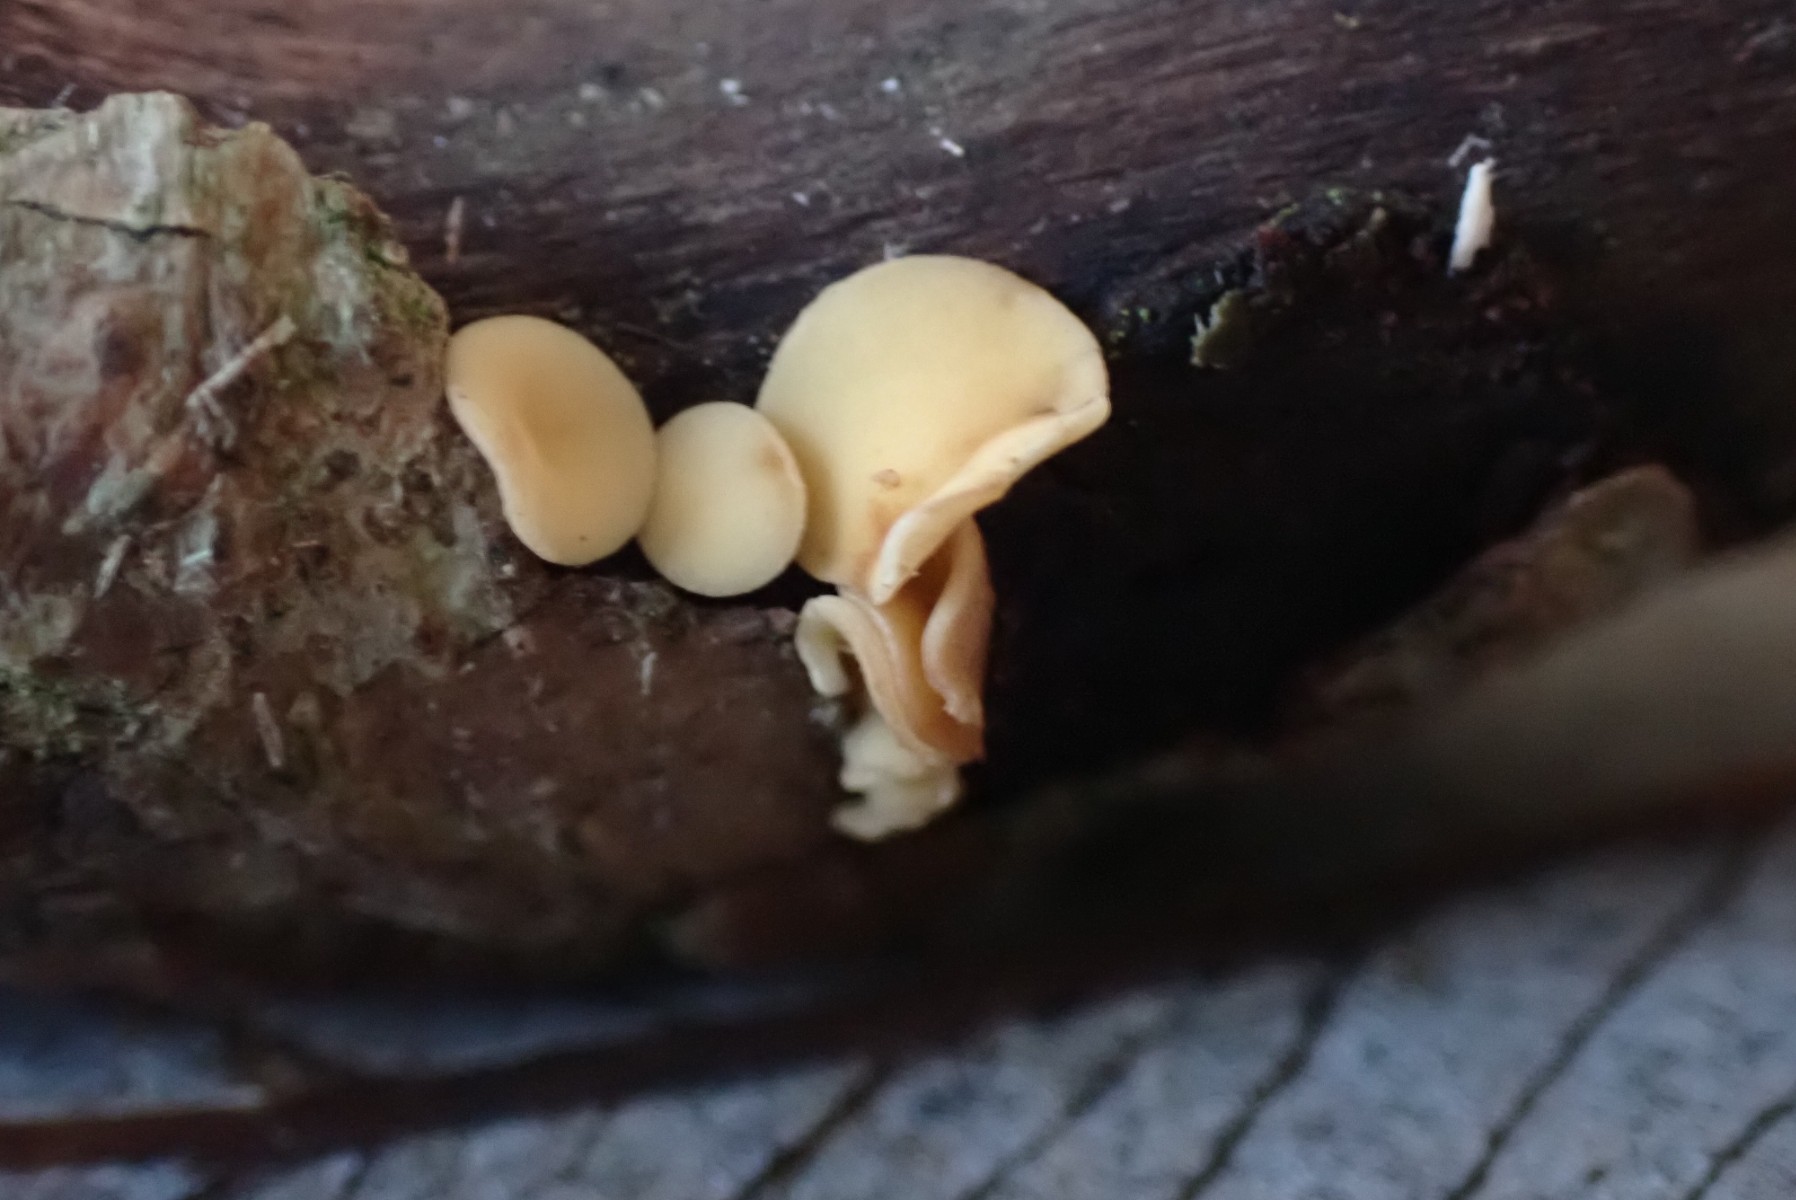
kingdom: Fungi
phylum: Ascomycota
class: Leotiomycetes
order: Helotiales
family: Helotiaceae
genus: Hymenoscyphus
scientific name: Hymenoscyphus calyculus
